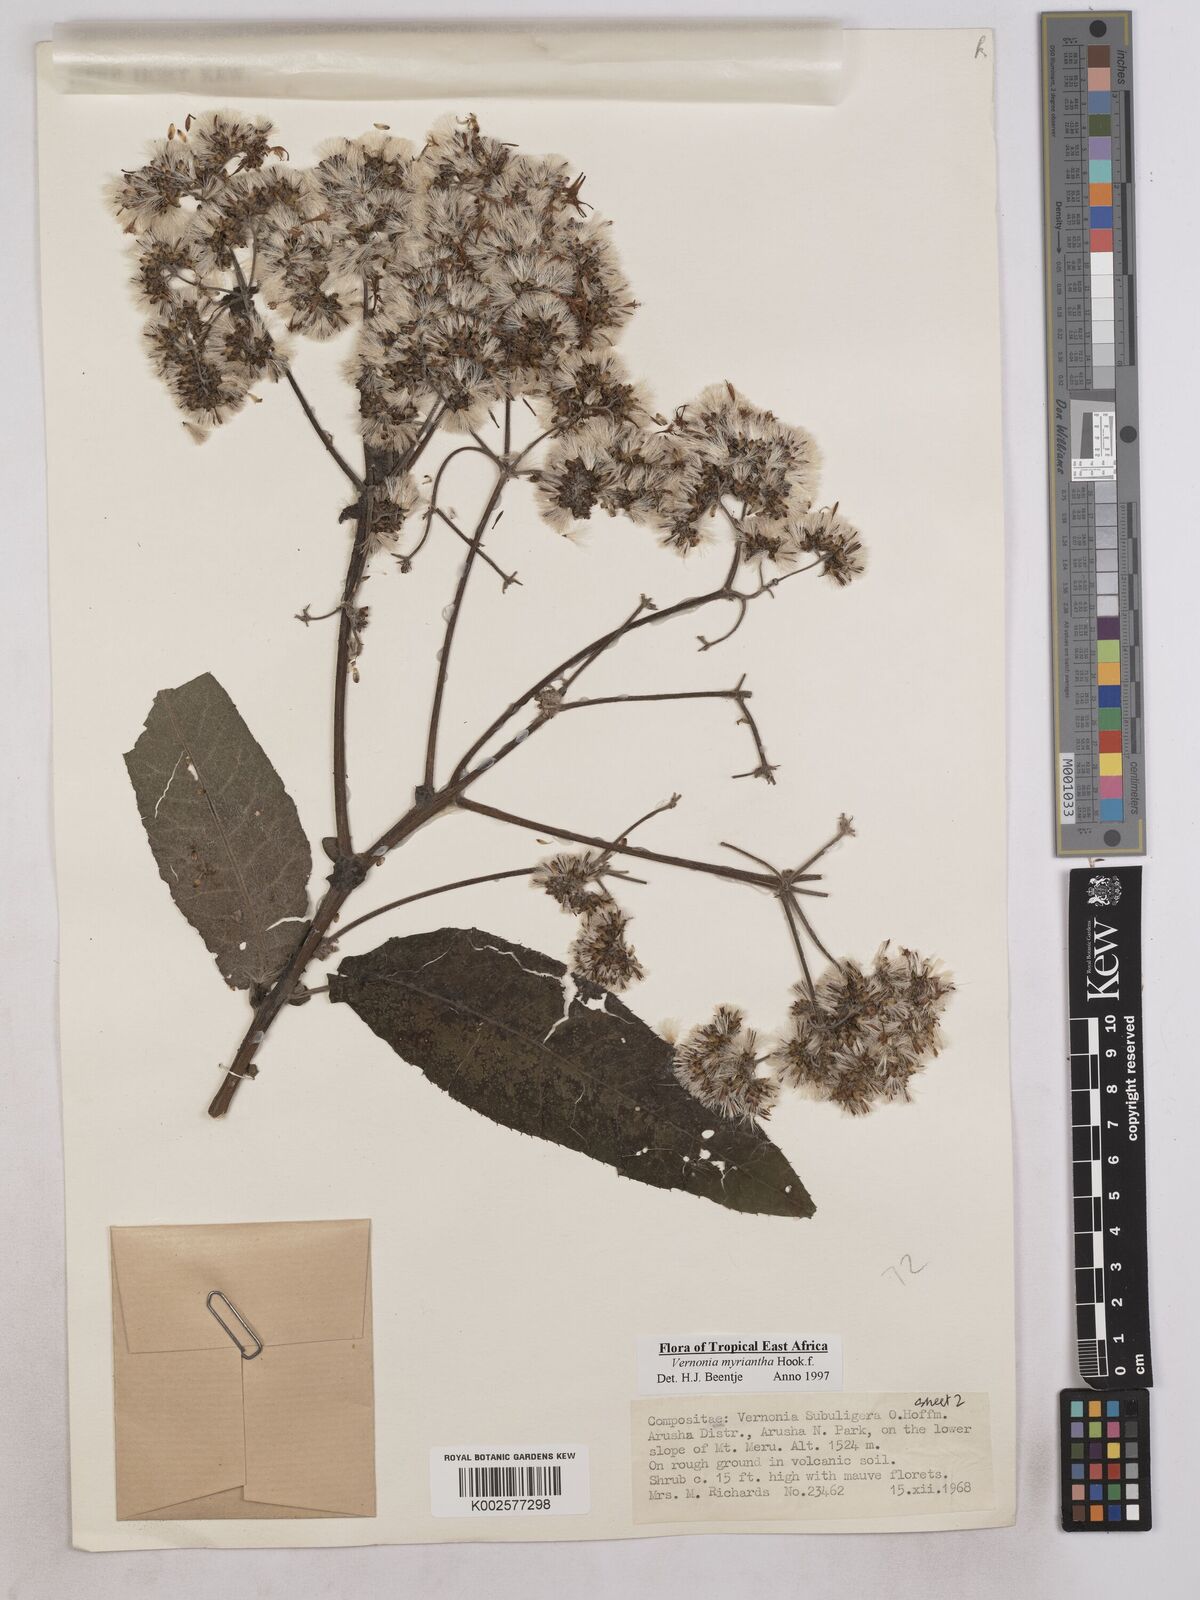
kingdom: Plantae
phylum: Tracheophyta
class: Magnoliopsida
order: Asterales
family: Asteraceae
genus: Gymnanthemum
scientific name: Gymnanthemum myrianthum
